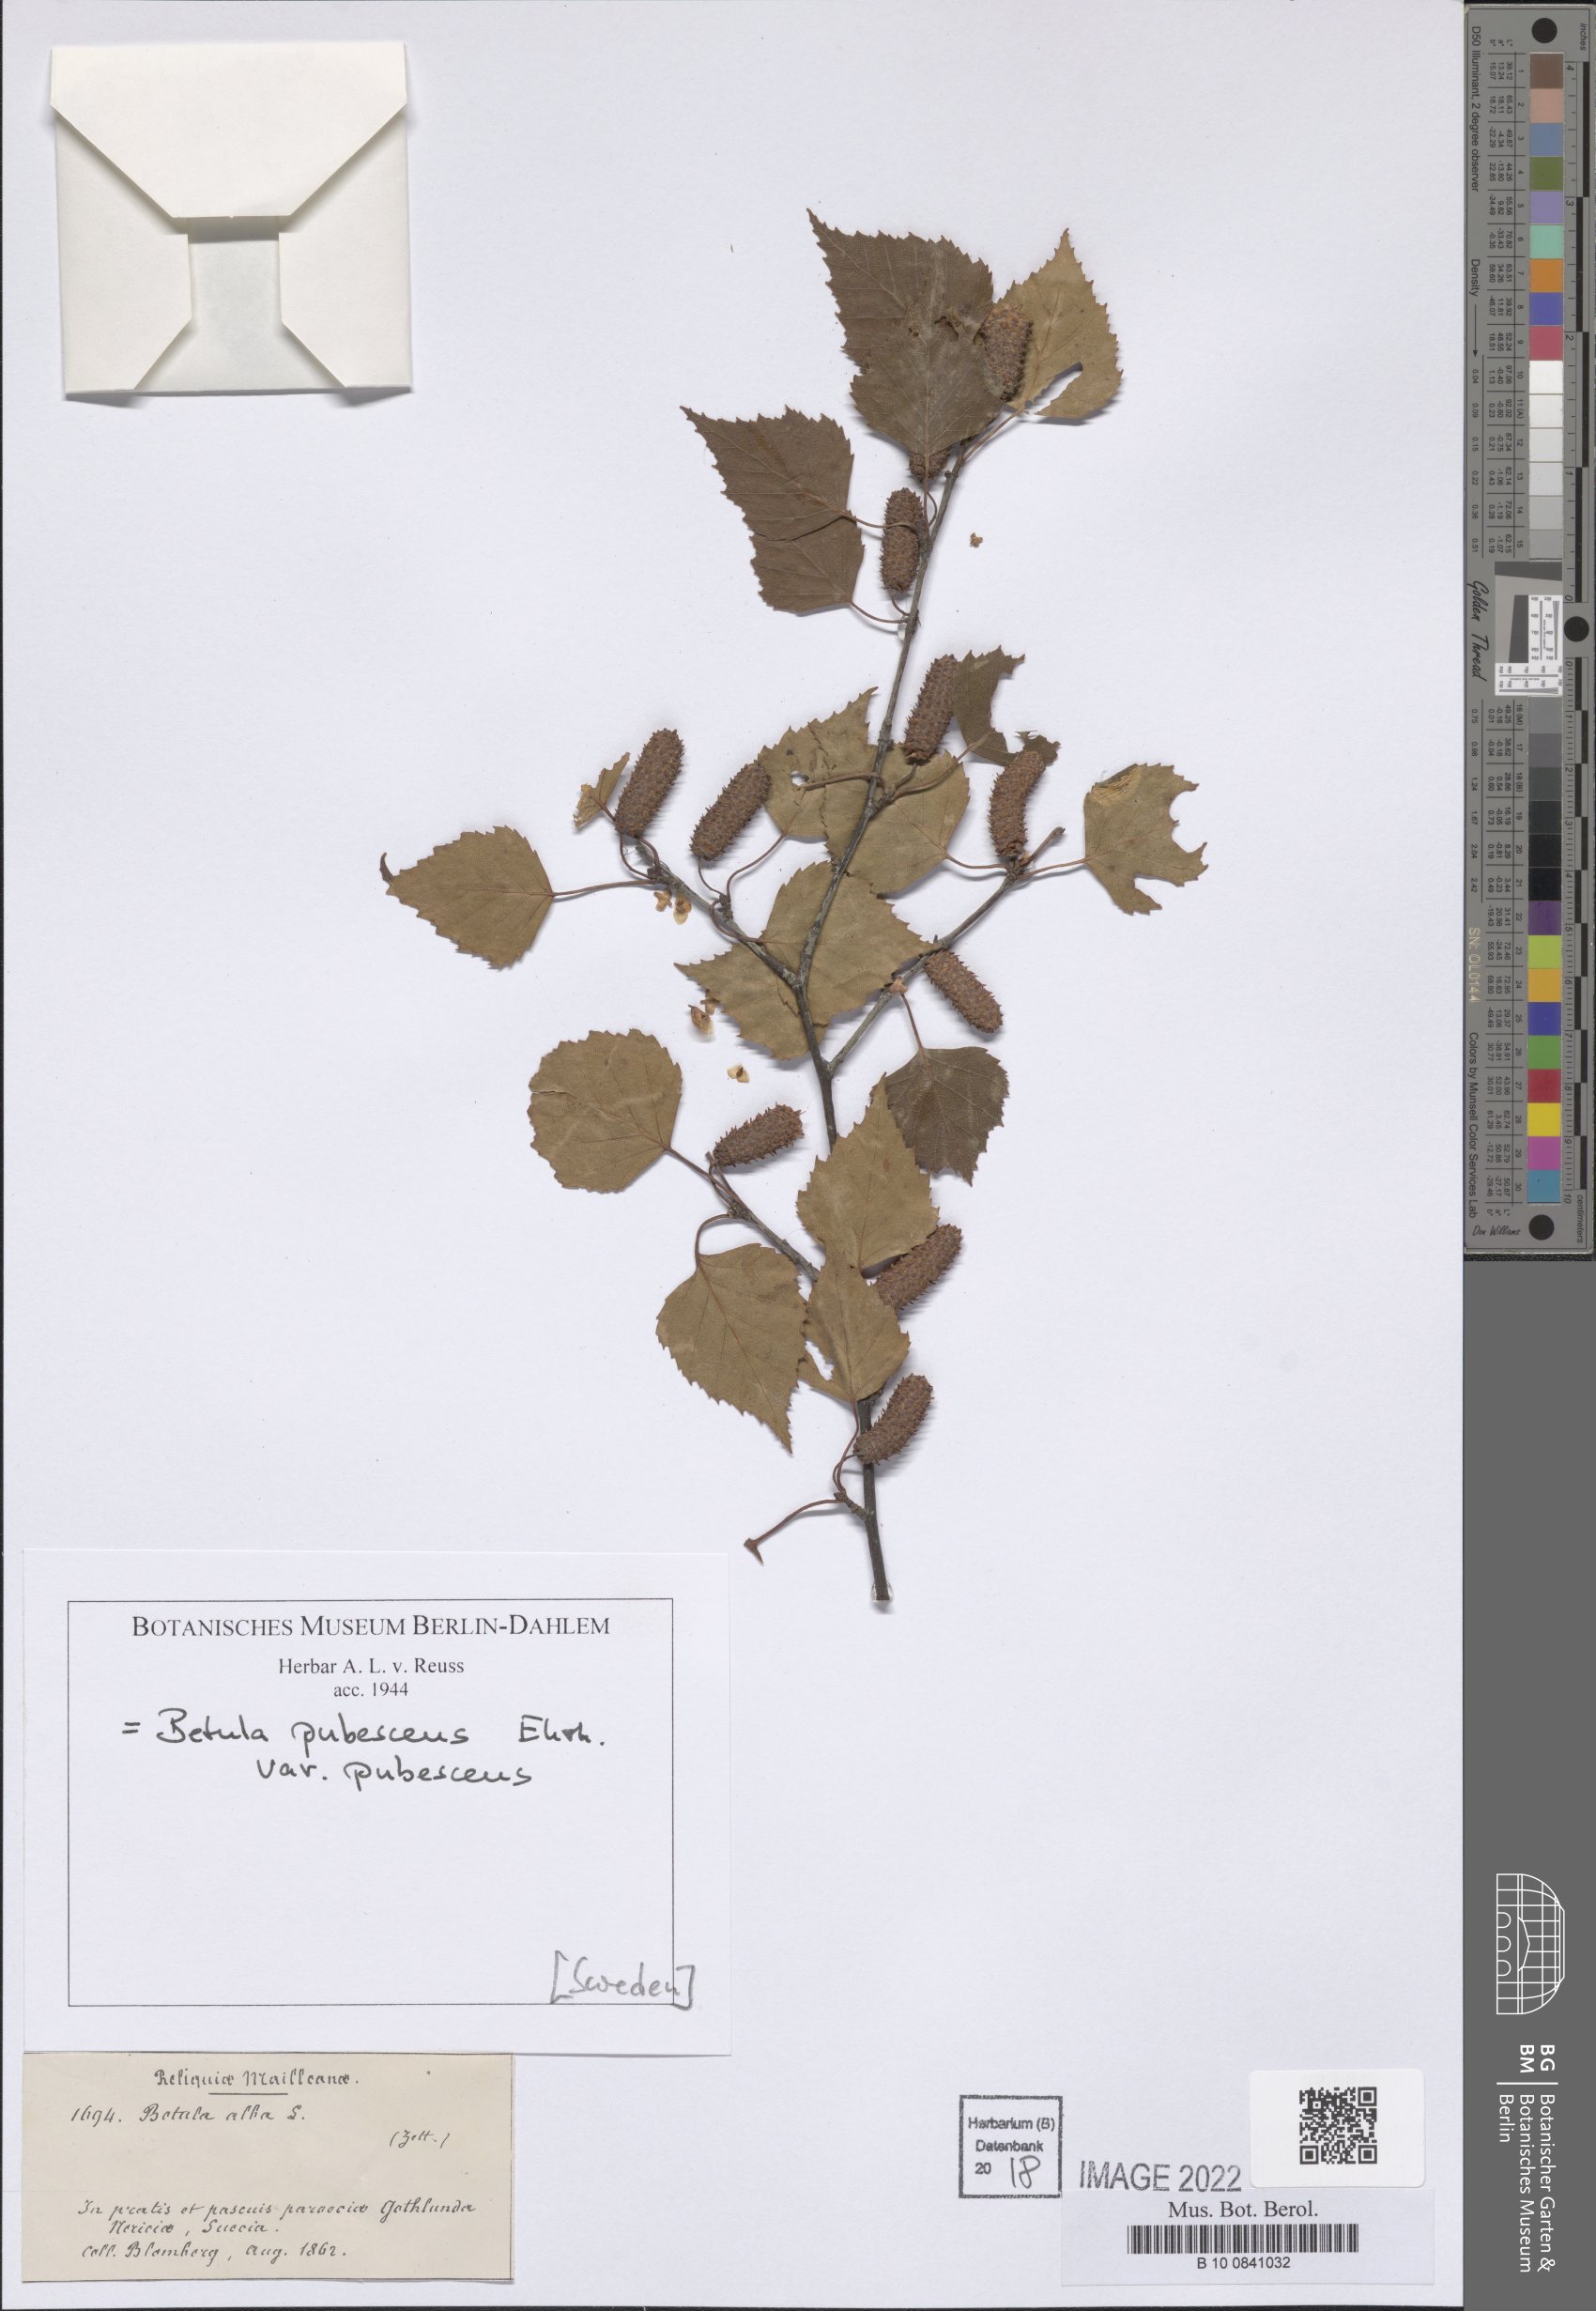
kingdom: Plantae
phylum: Tracheophyta
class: Magnoliopsida
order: Fagales
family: Betulaceae
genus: Betula
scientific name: Betula pubescens
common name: Downy birch
